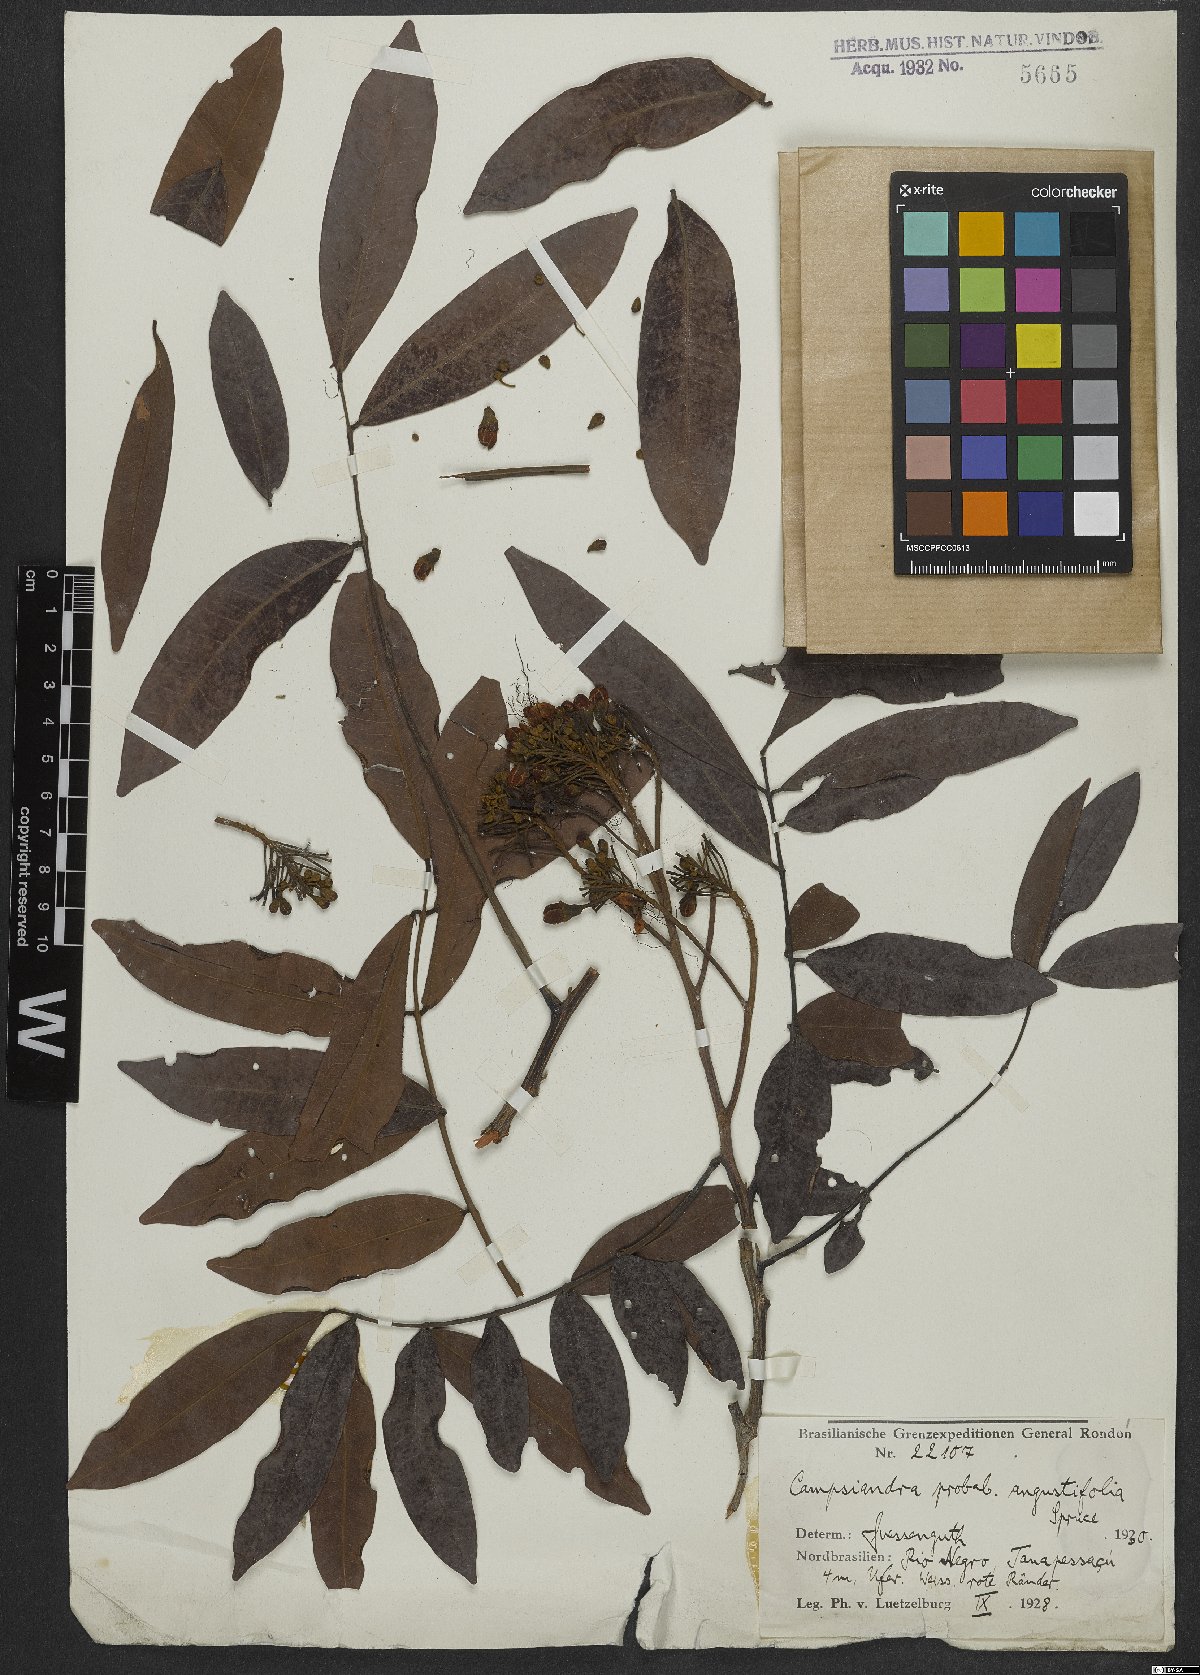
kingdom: Plantae
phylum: Tracheophyta
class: Magnoliopsida
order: Fabales
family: Fabaceae
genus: Campsiandra
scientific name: Campsiandra angustifolia
